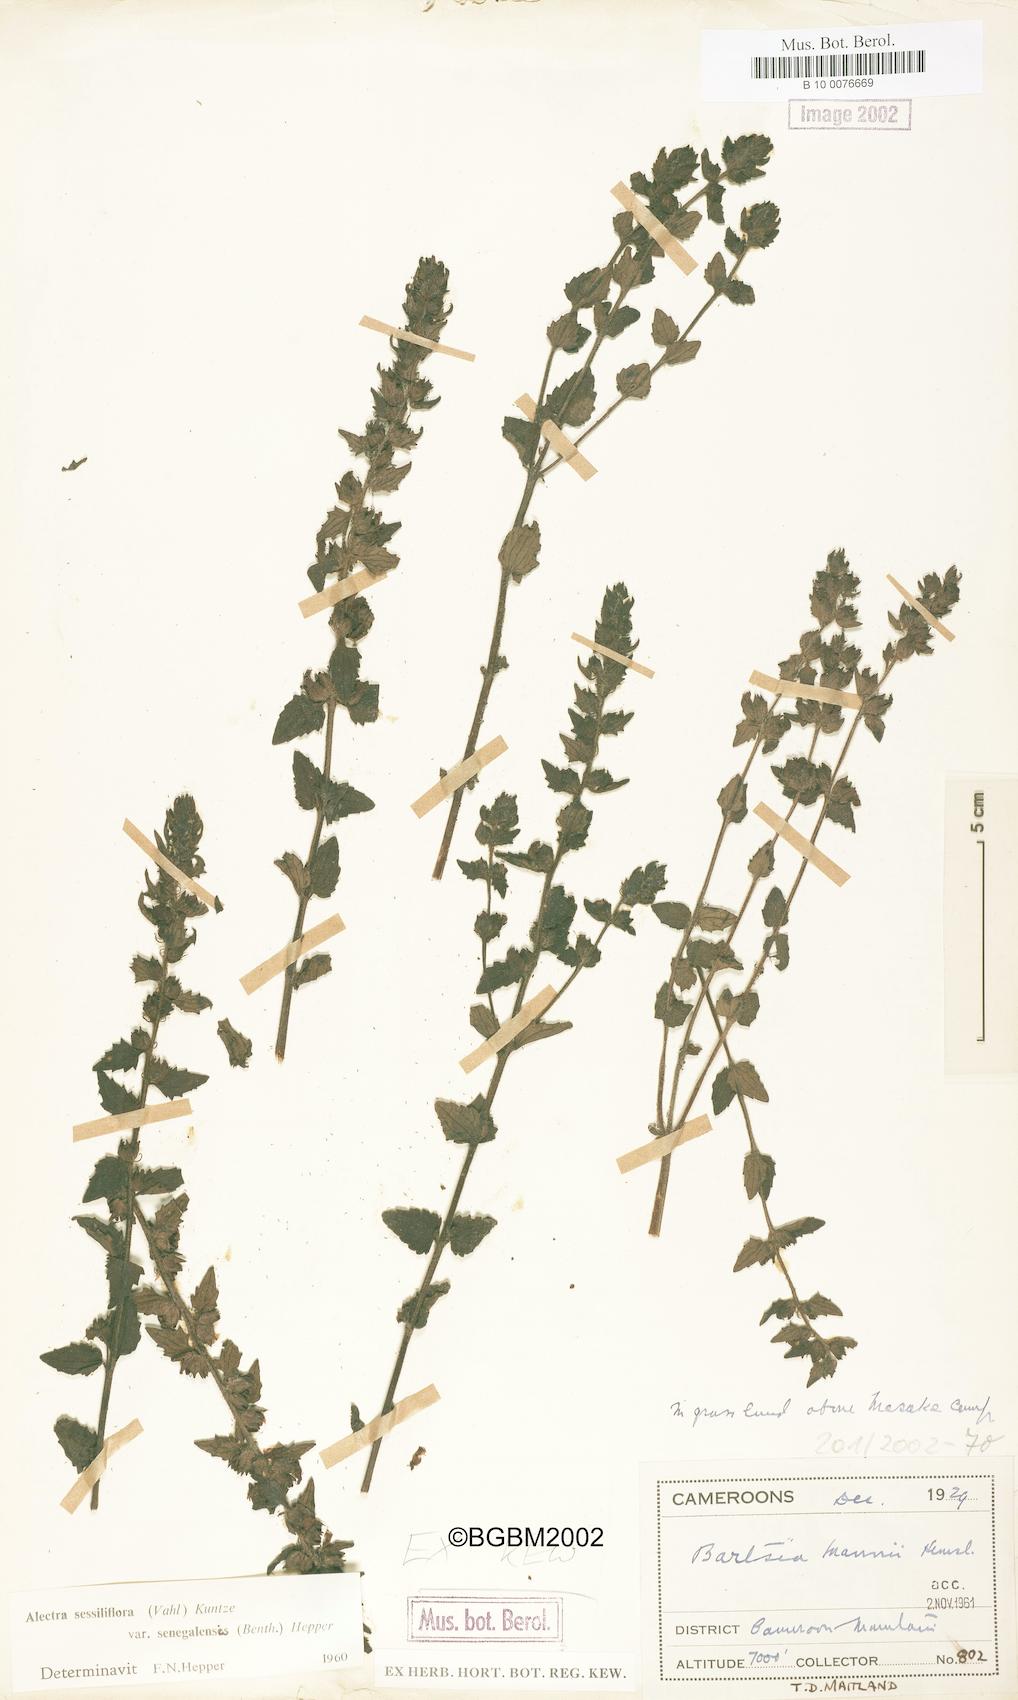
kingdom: Plantae
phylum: Tracheophyta
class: Magnoliopsida
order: Lamiales
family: Orobanchaceae
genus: Alectra
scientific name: Alectra sessiliflora
